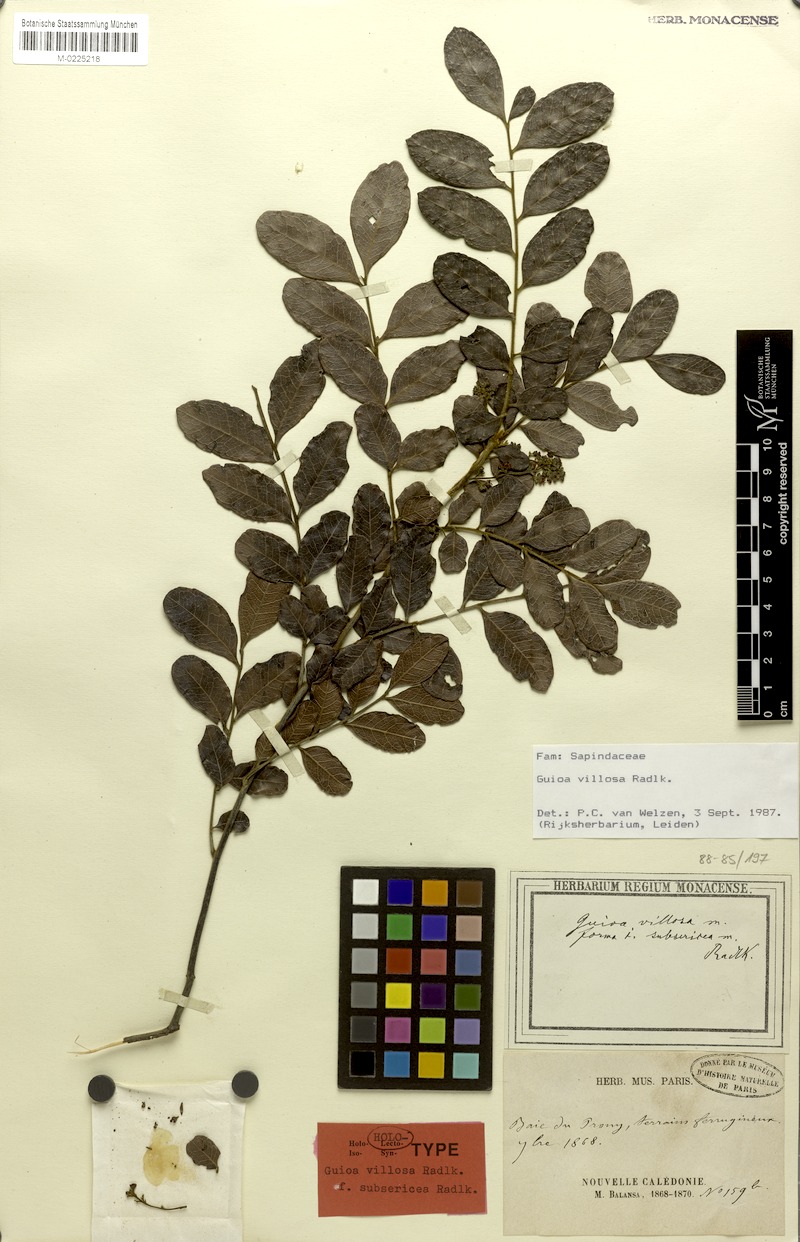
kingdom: Plantae
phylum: Tracheophyta
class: Magnoliopsida
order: Sapindales
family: Sapindaceae
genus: Guioa
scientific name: Guioa villosa
